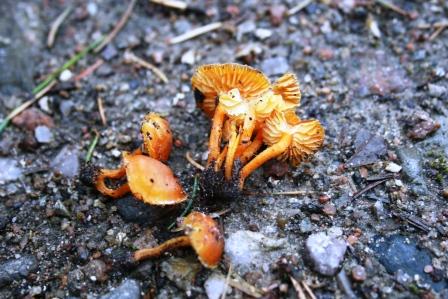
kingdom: Fungi
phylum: Basidiomycota
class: Agaricomycetes
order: Agaricales
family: Hygrophoraceae
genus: Hygrocybe
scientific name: Hygrocybe miniata
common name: mønje-vokshat
